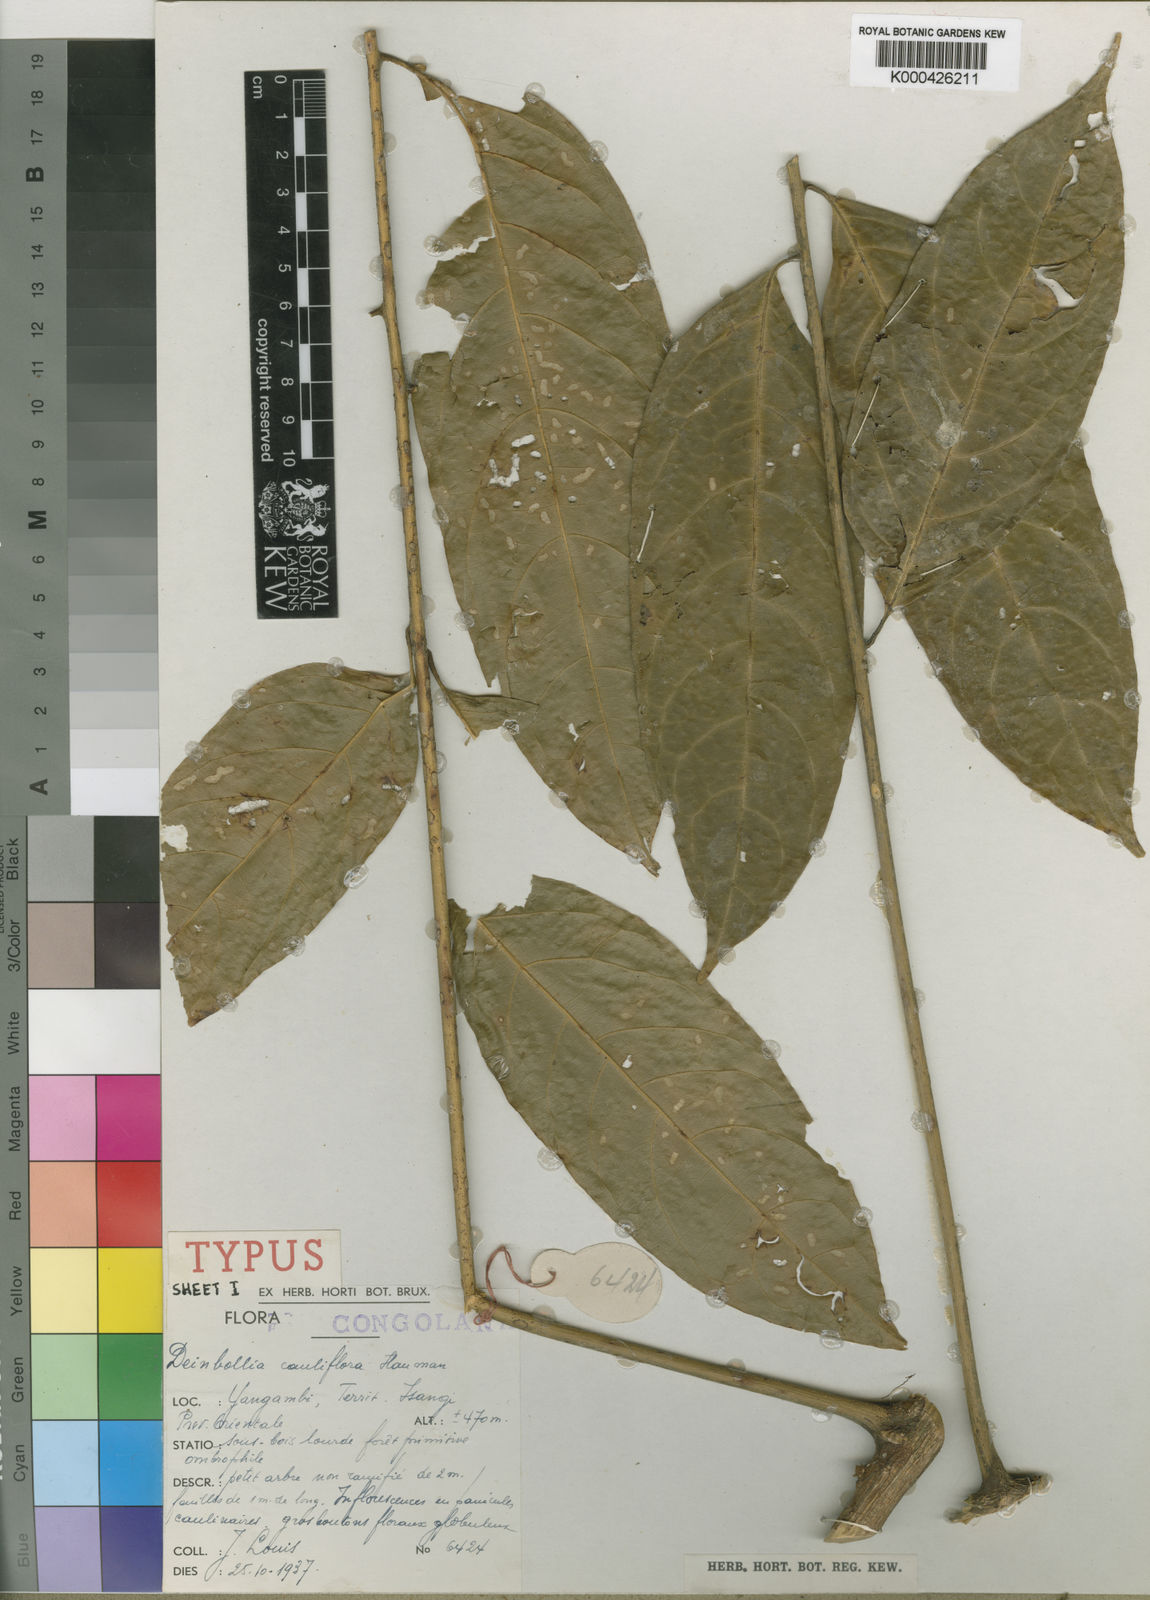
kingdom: Plantae
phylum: Tracheophyta
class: Magnoliopsida
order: Sapindales
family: Sapindaceae
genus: Deinbollia
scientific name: Deinbollia cauliflora
